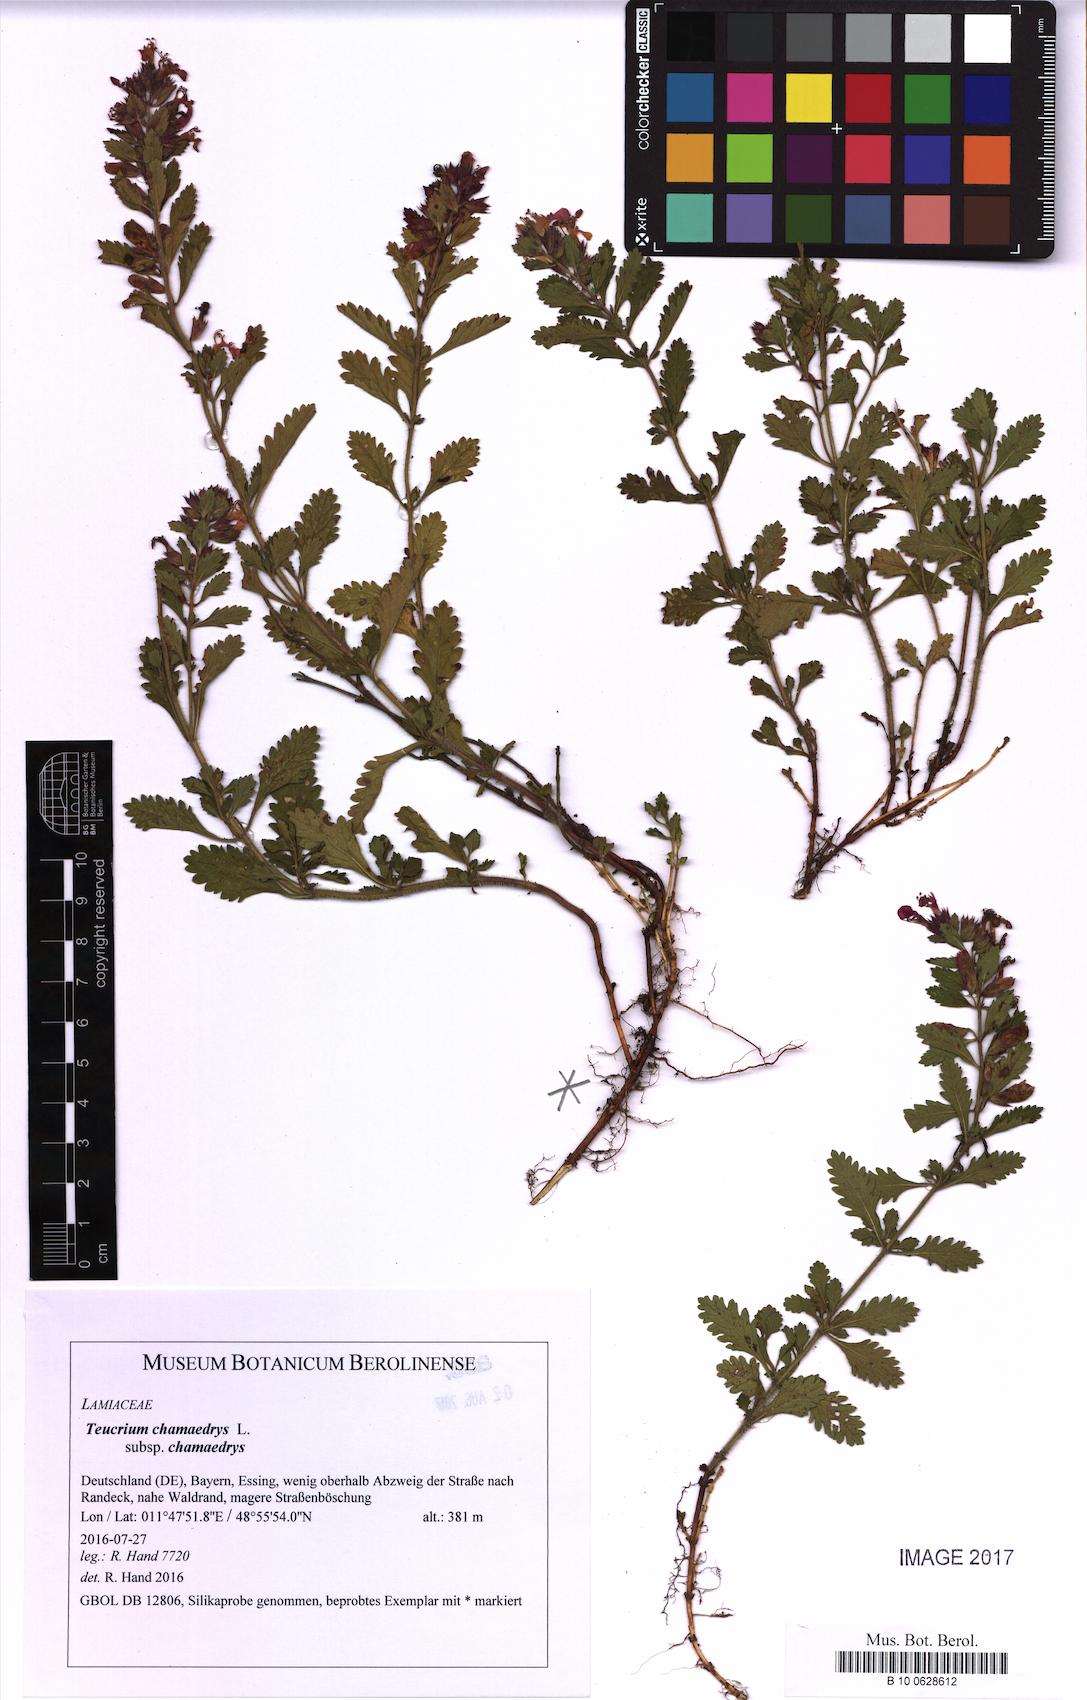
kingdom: Plantae
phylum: Tracheophyta
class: Magnoliopsida
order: Lamiales
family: Lamiaceae
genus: Teucrium
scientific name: Teucrium chamaedrys
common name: Wall germander
